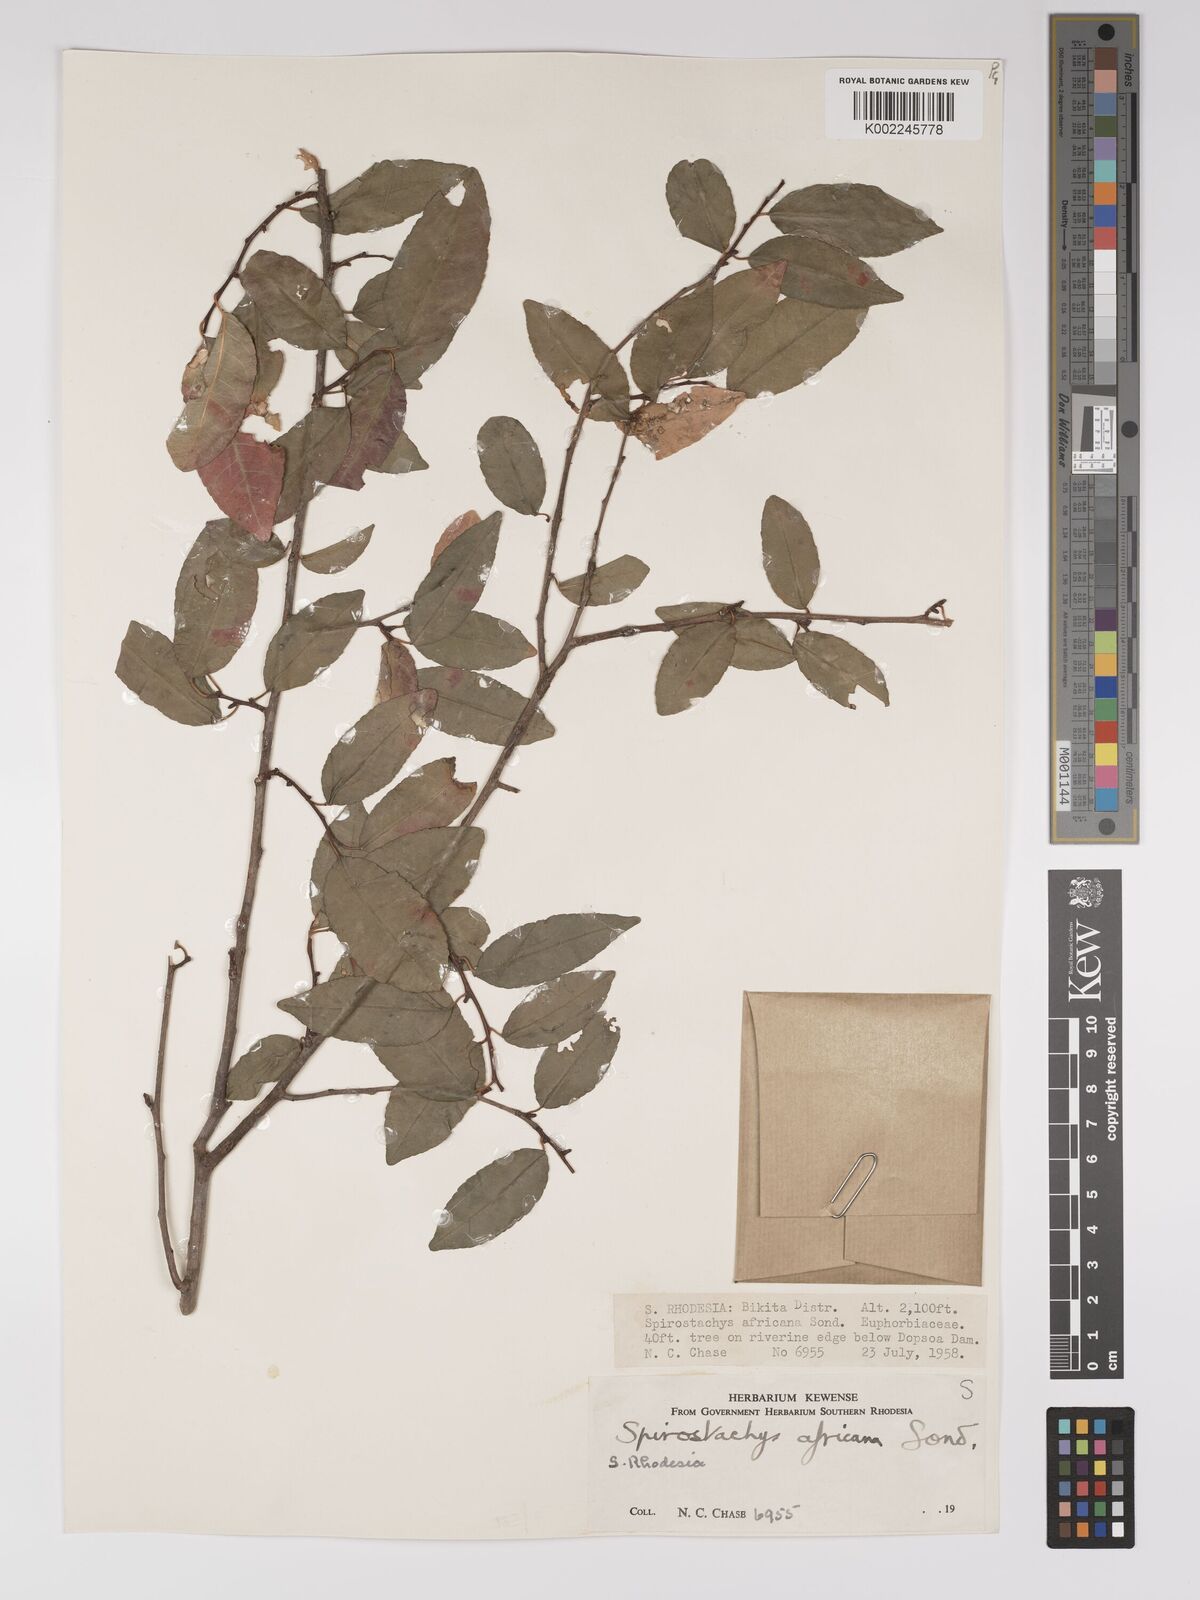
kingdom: Plantae
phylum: Tracheophyta
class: Magnoliopsida
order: Malpighiales
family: Euphorbiaceae
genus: Spirostachys
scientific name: Spirostachys africana
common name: Tamboti
